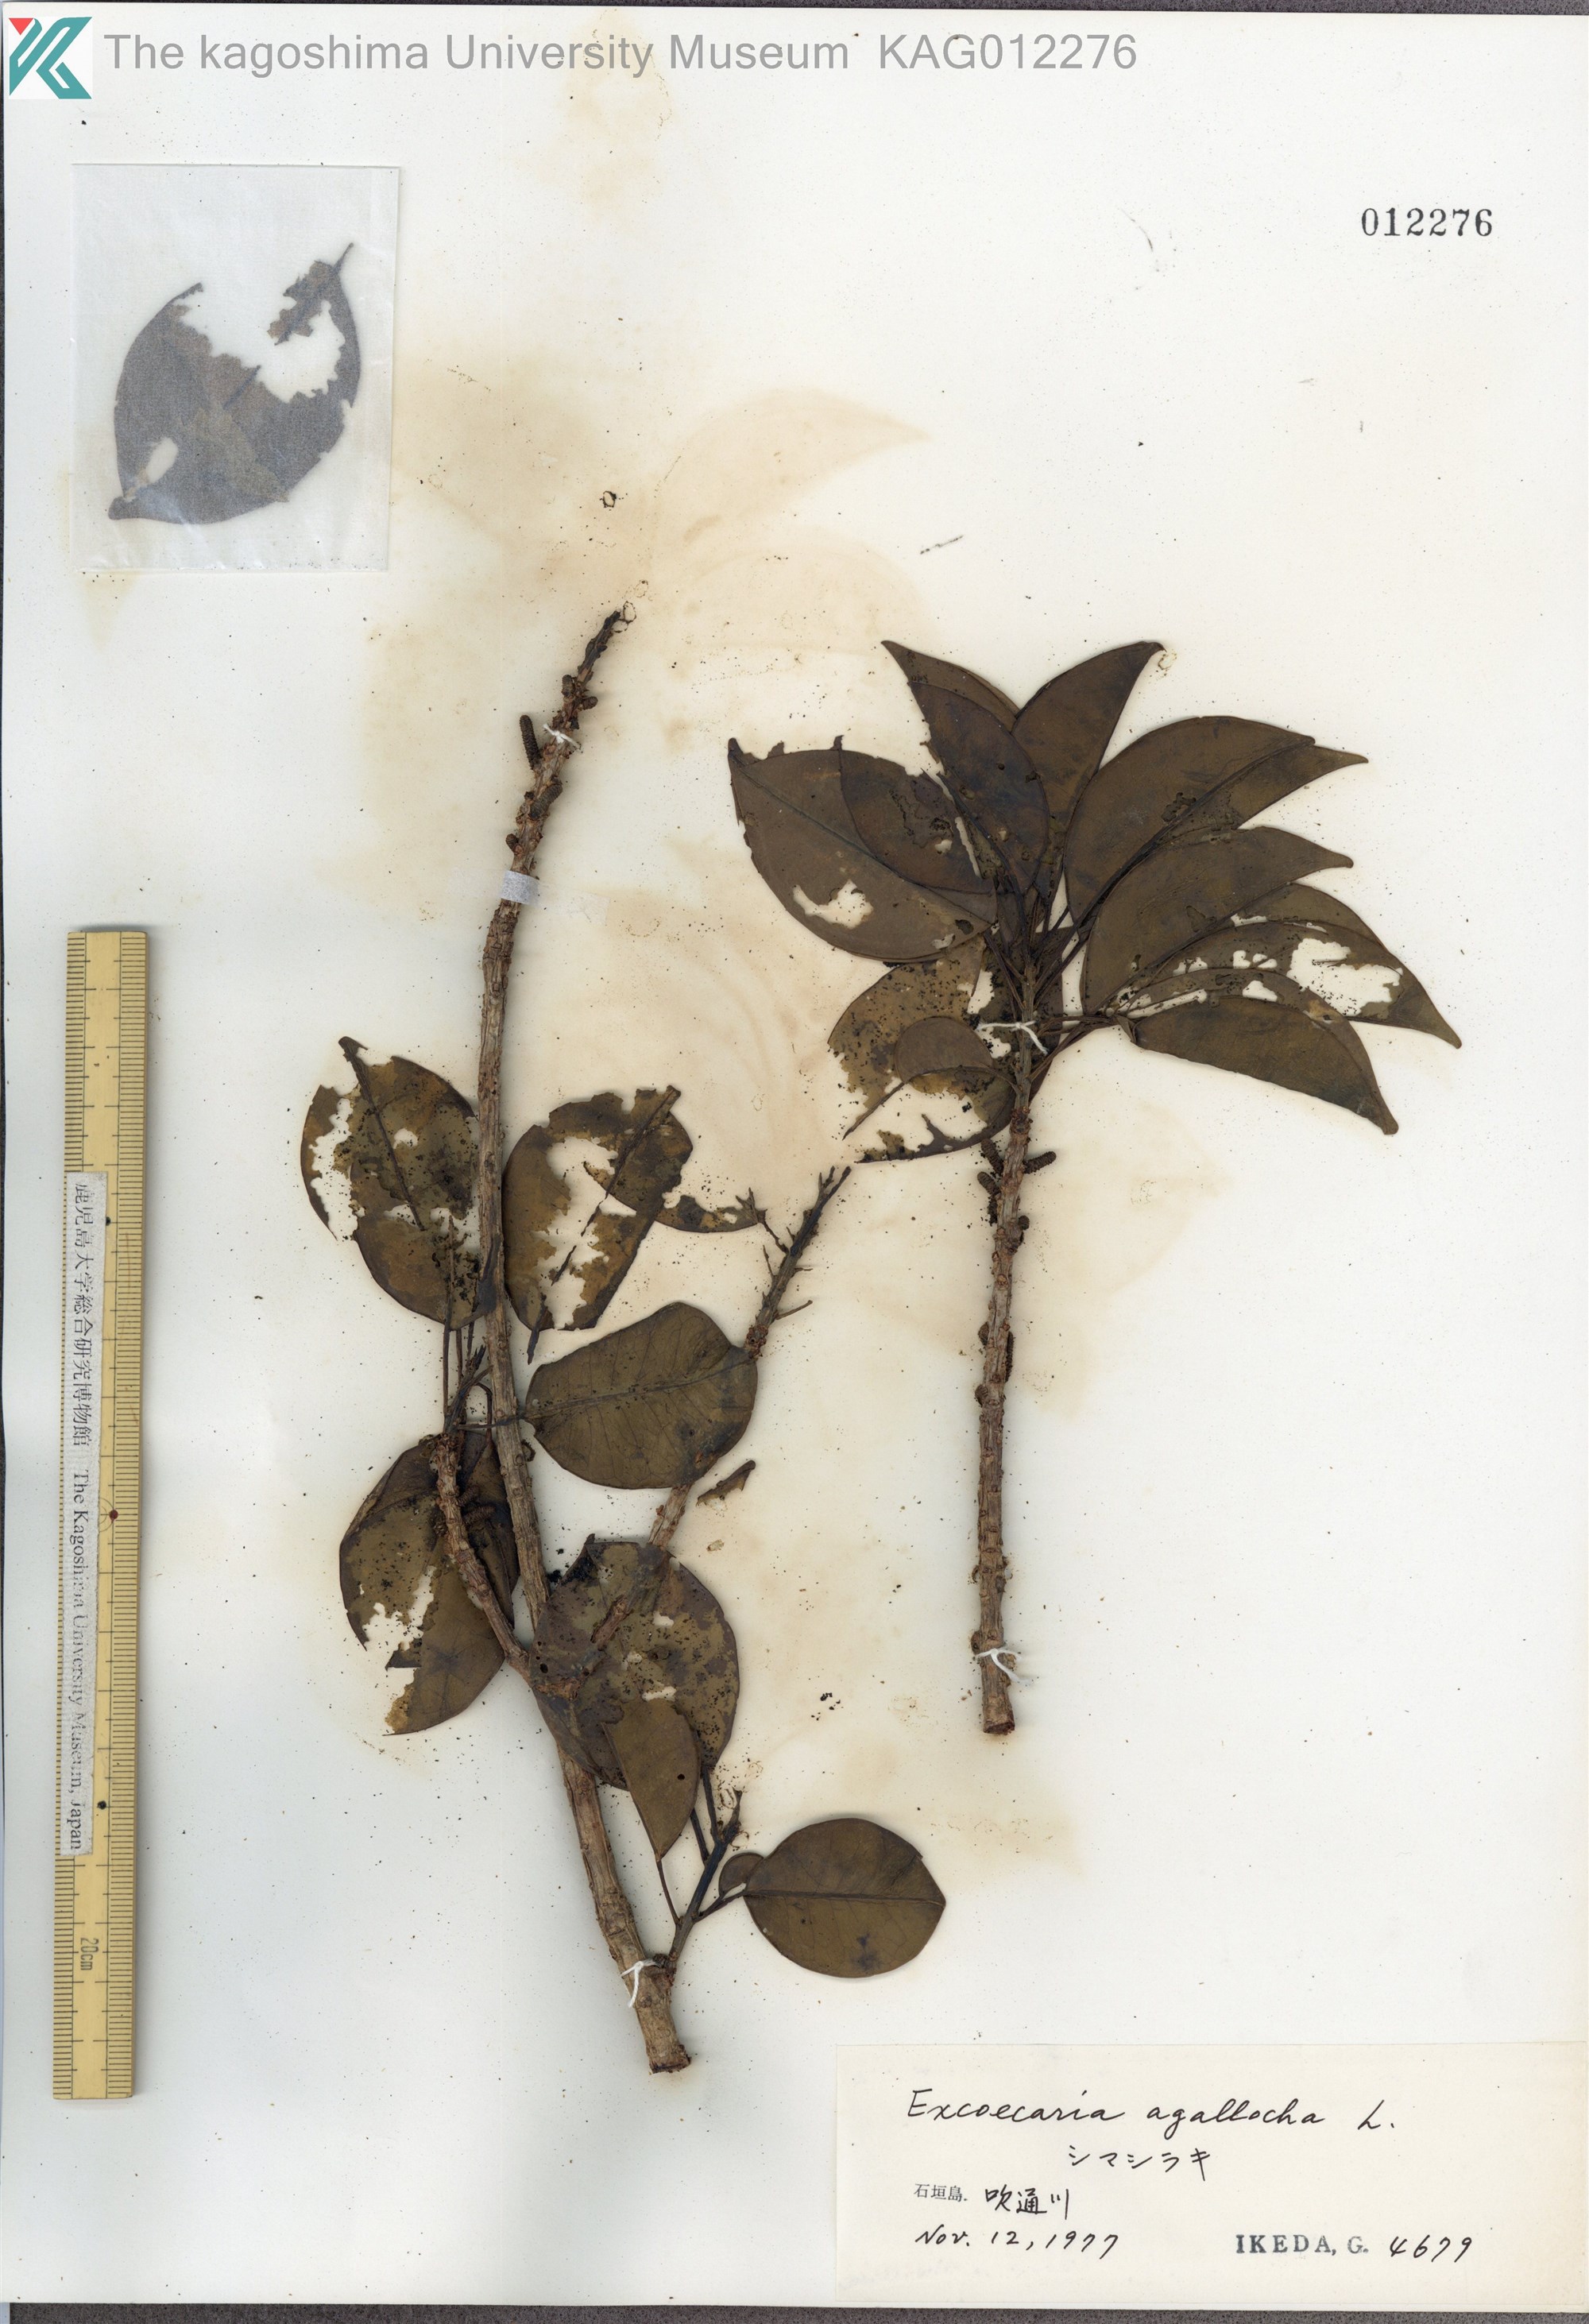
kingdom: Plantae
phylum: Tracheophyta
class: Magnoliopsida
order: Malpighiales
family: Euphorbiaceae
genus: Excoecaria
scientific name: Excoecaria agallocha
